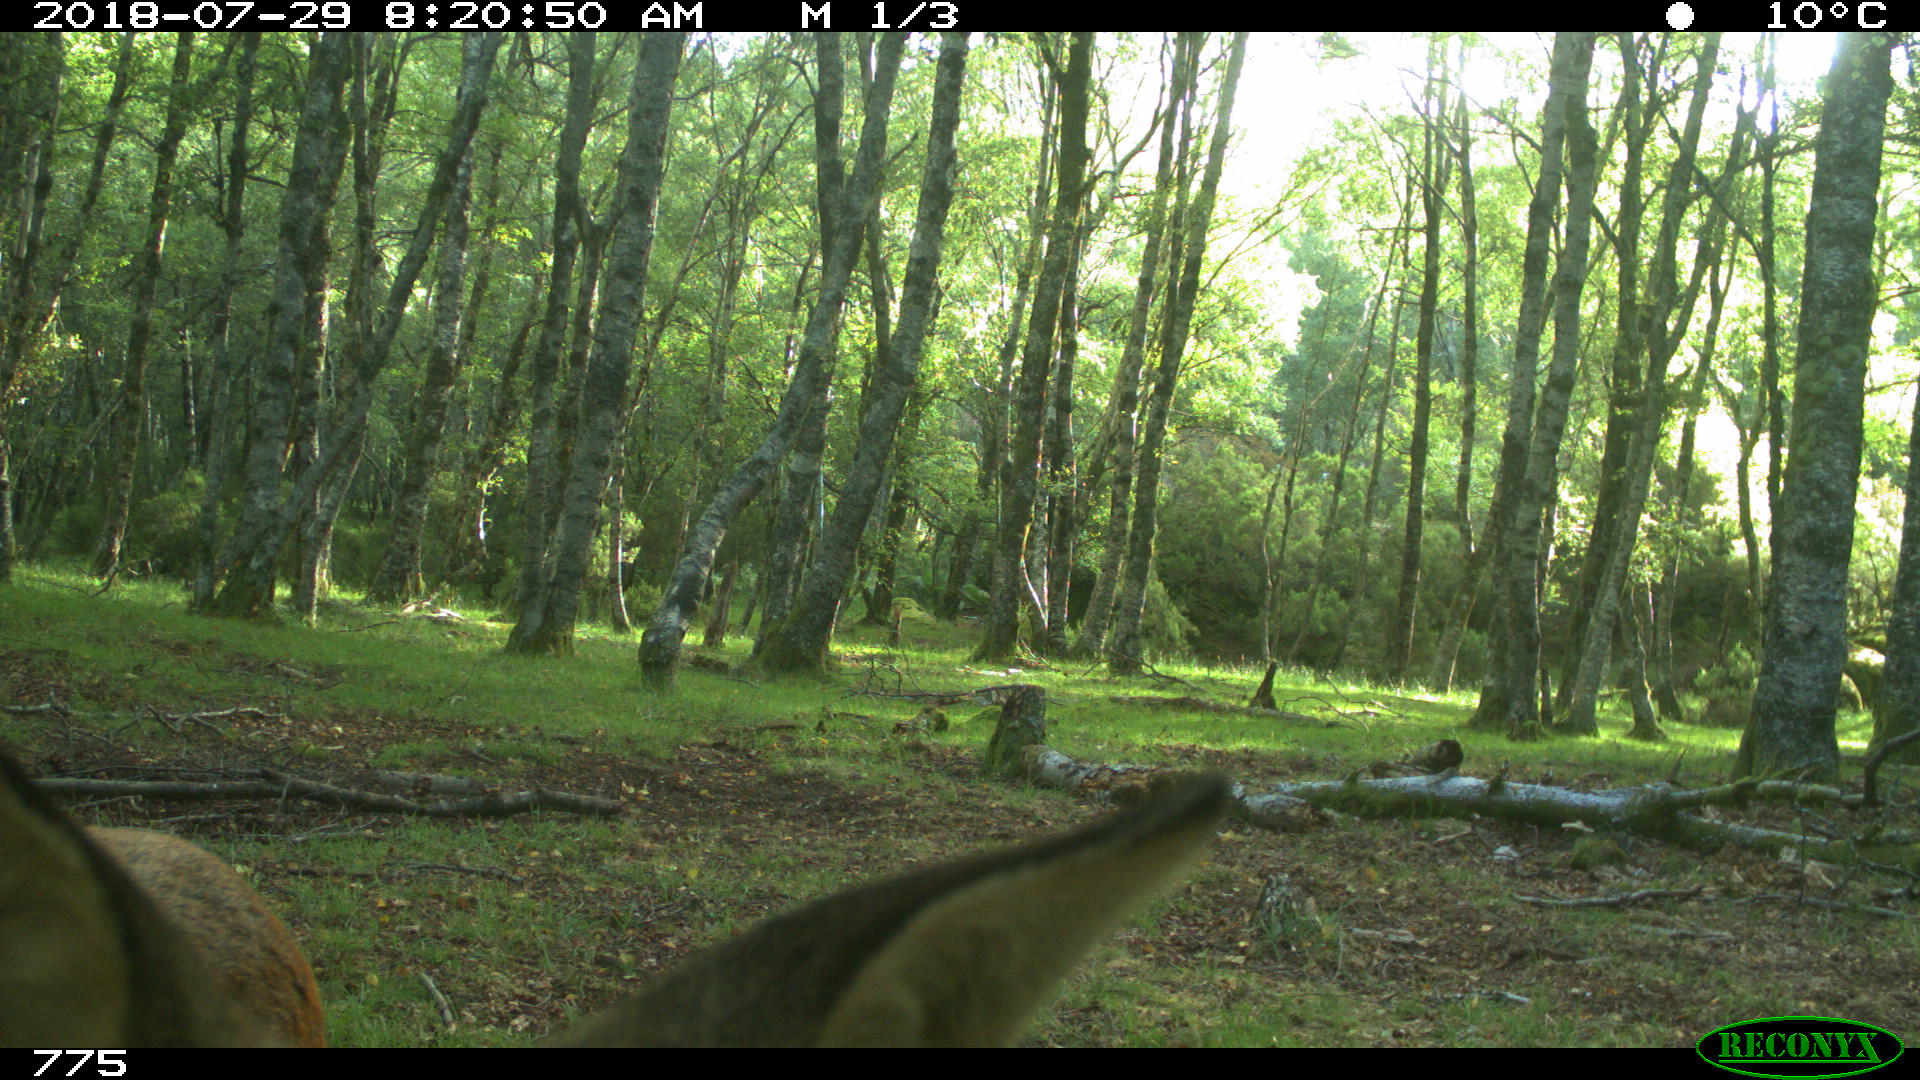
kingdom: Animalia
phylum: Chordata
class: Mammalia
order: Artiodactyla
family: Cervidae
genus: Capreolus
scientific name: Capreolus capreolus
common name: Western roe deer
